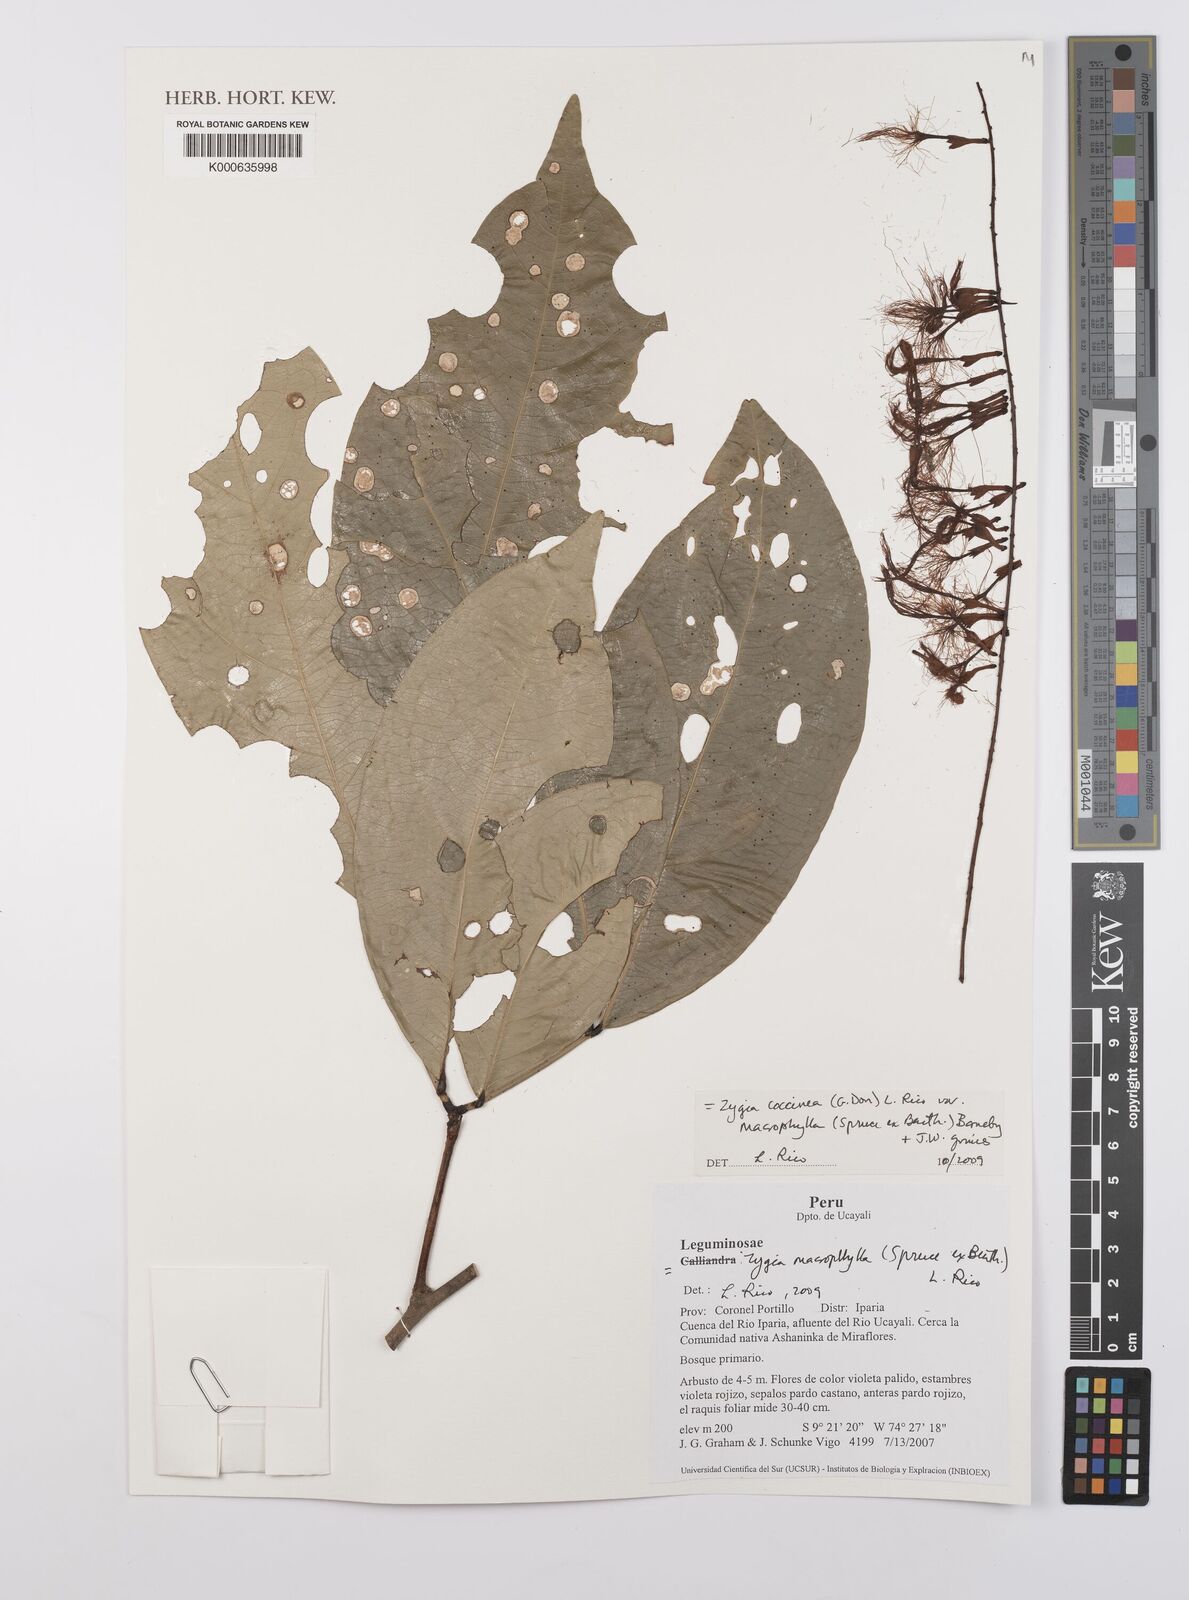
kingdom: Plantae
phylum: Tracheophyta
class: Magnoliopsida
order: Fabales
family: Fabaceae
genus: Zygia
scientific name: Zygia coccinea
